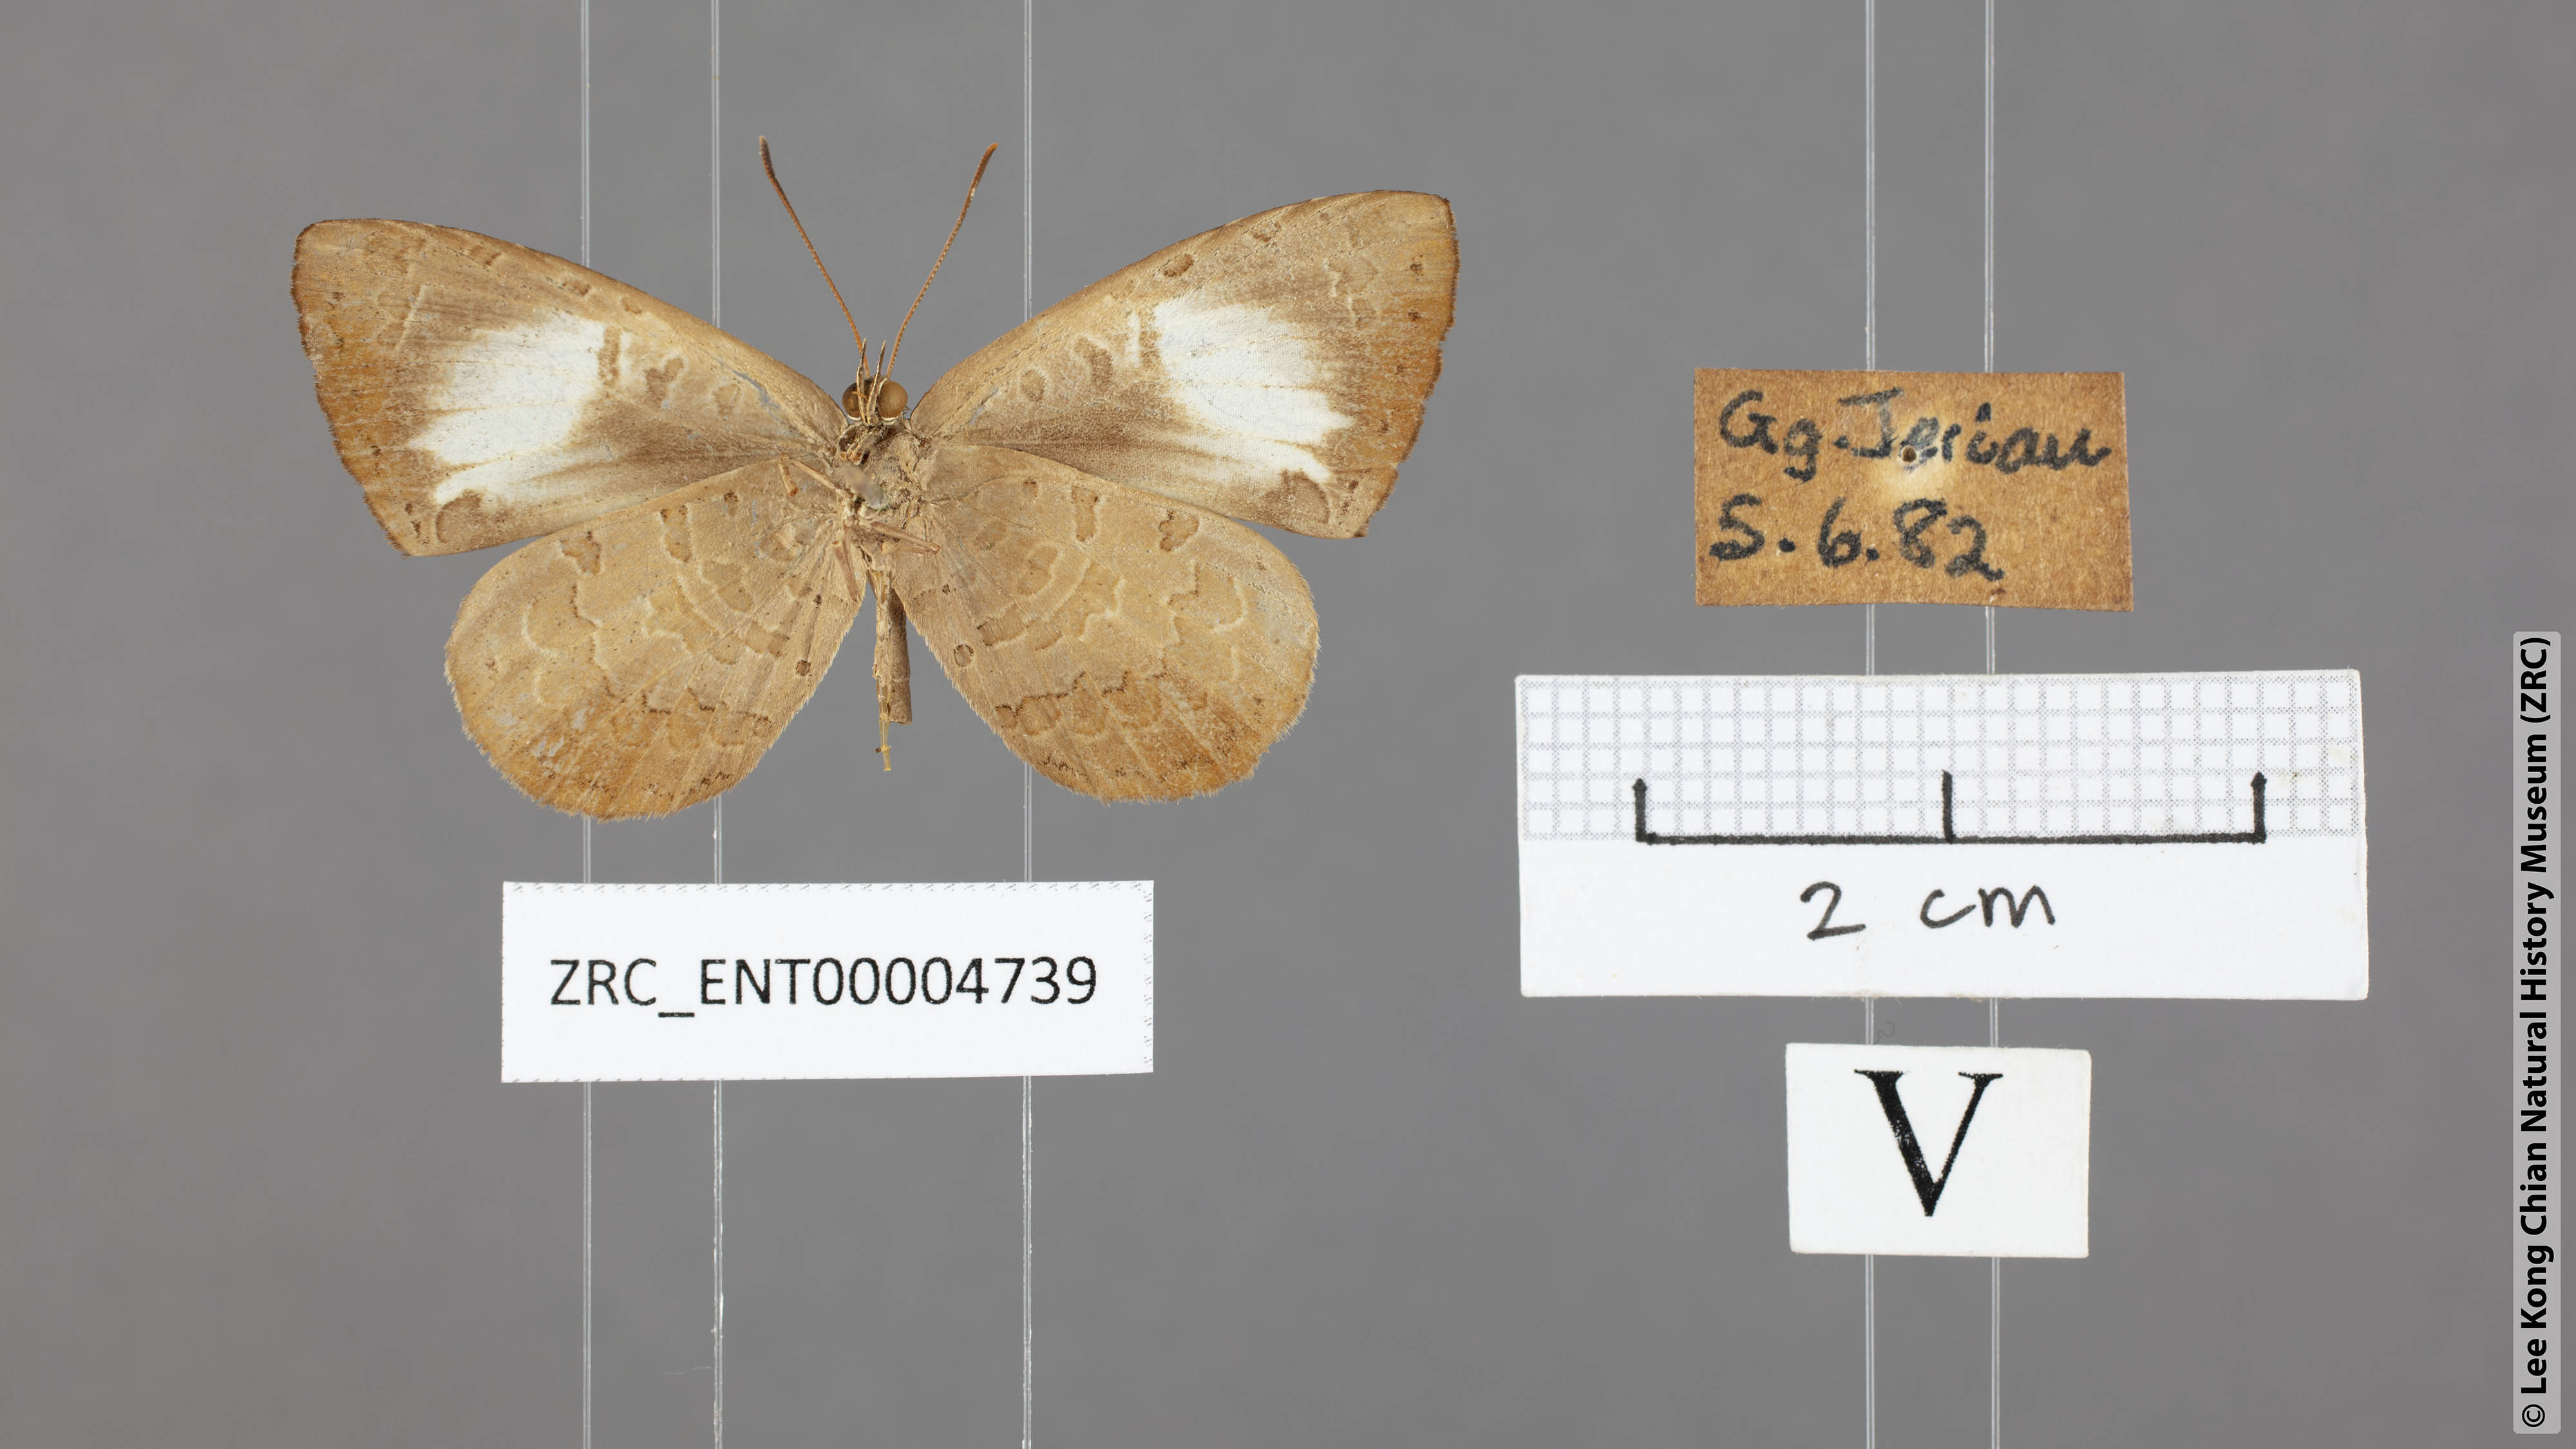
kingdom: Animalia
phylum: Arthropoda
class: Insecta
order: Lepidoptera
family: Lycaenidae
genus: Miletus
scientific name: Miletus nymphis
